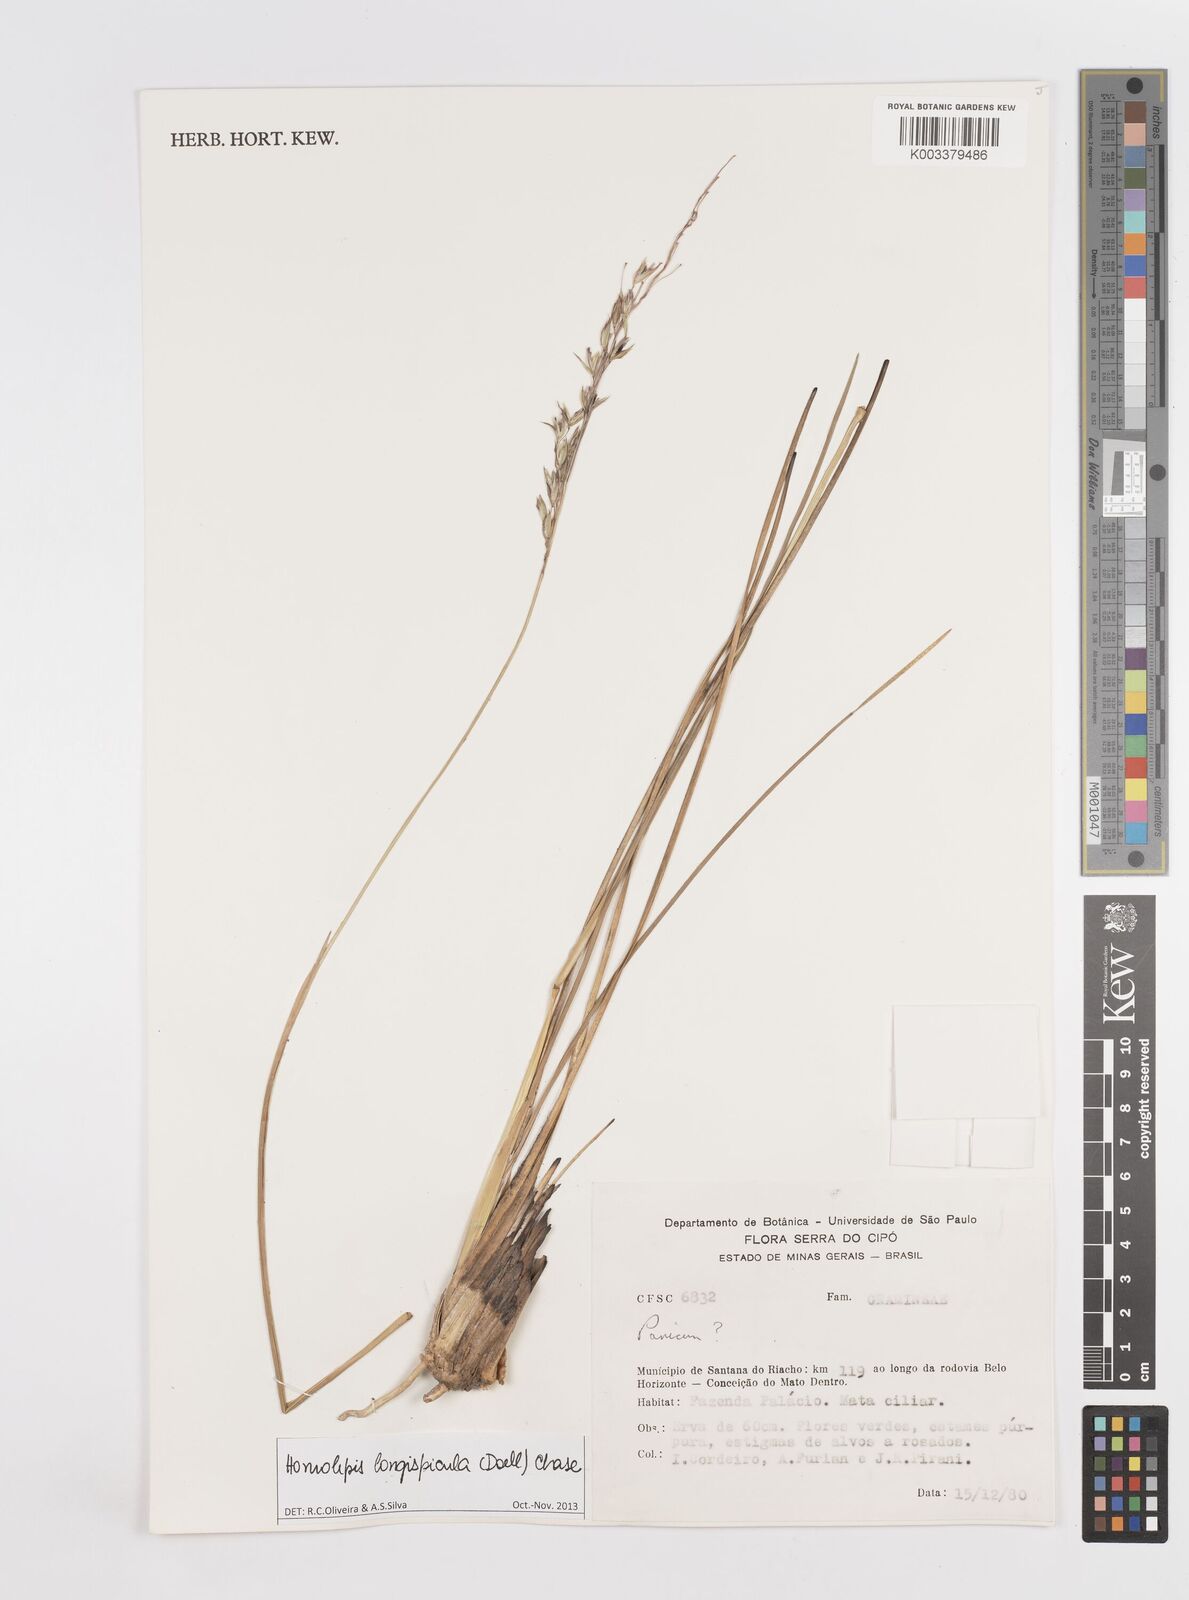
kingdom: Plantae
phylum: Tracheophyta
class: Liliopsida
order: Poales
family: Poaceae
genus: Homolepis
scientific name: Homolepis longispicula
